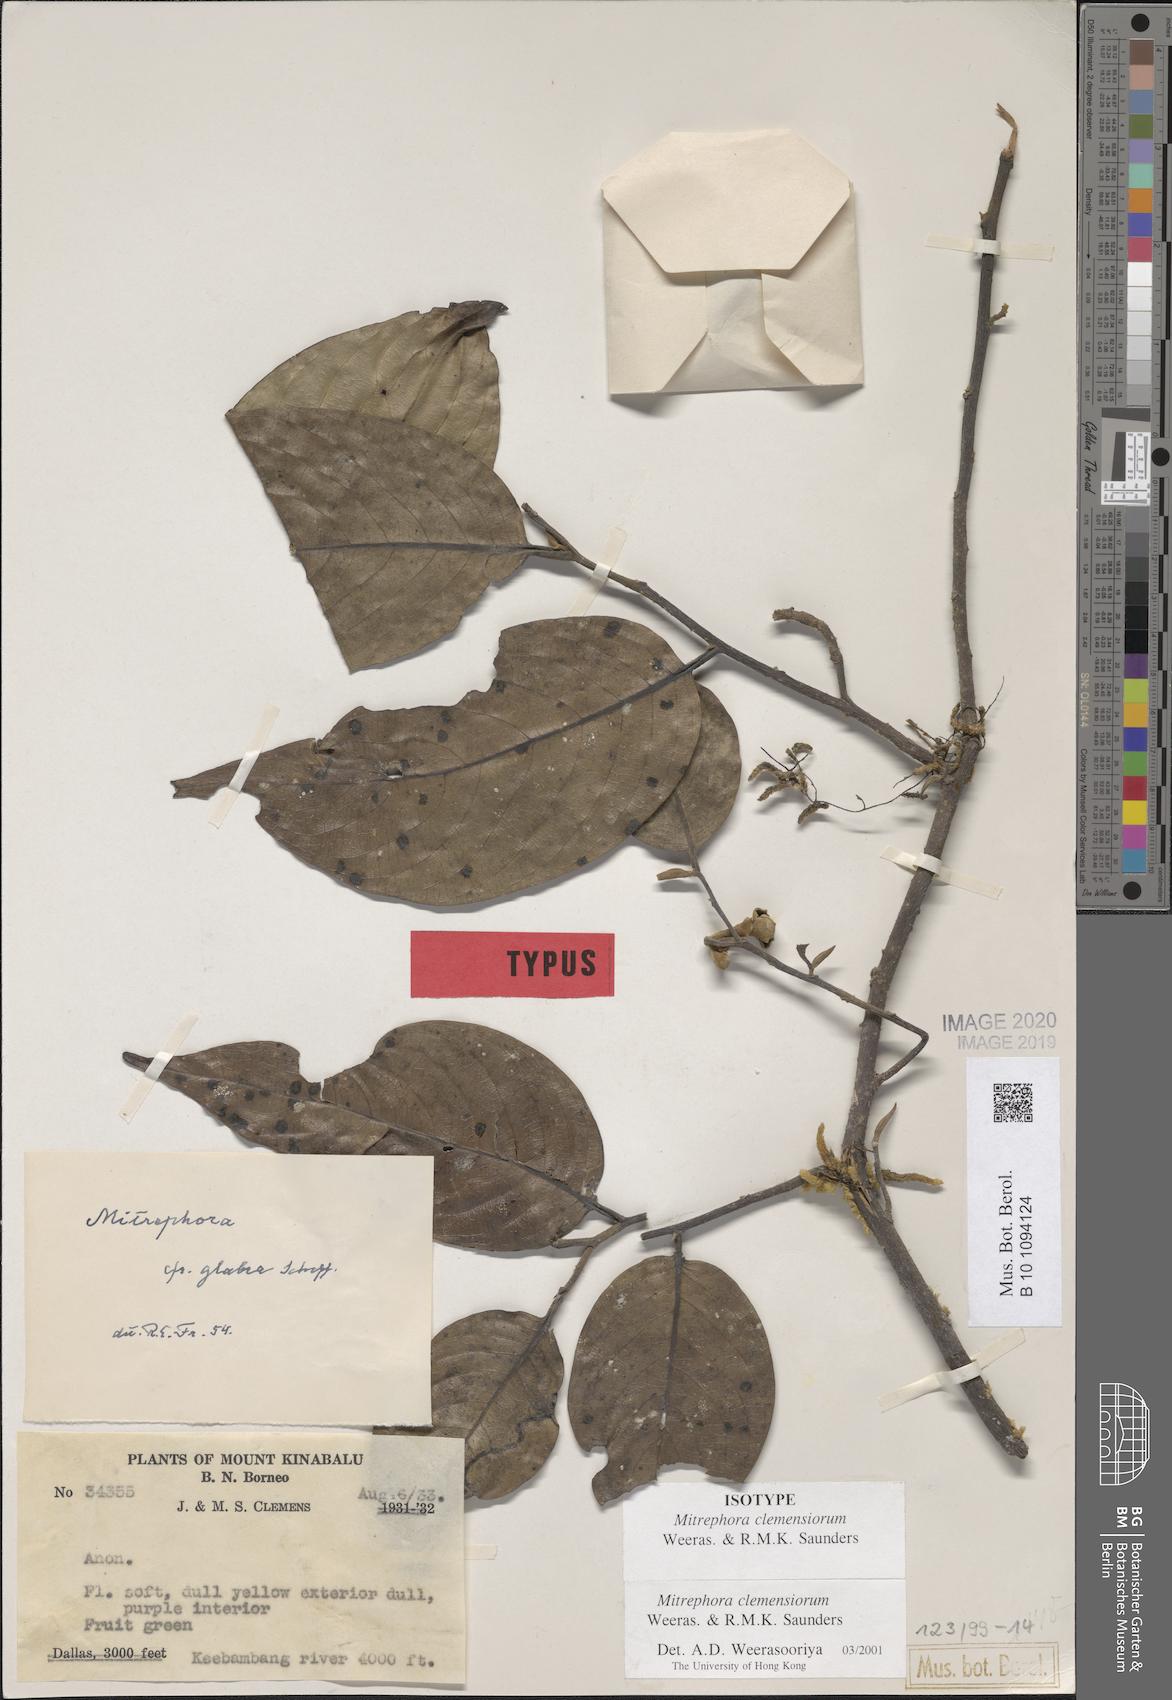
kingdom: Plantae
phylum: Tracheophyta
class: Magnoliopsida
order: Magnoliales
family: Annonaceae
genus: Mitrephora
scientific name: Mitrephora clemensiorum
